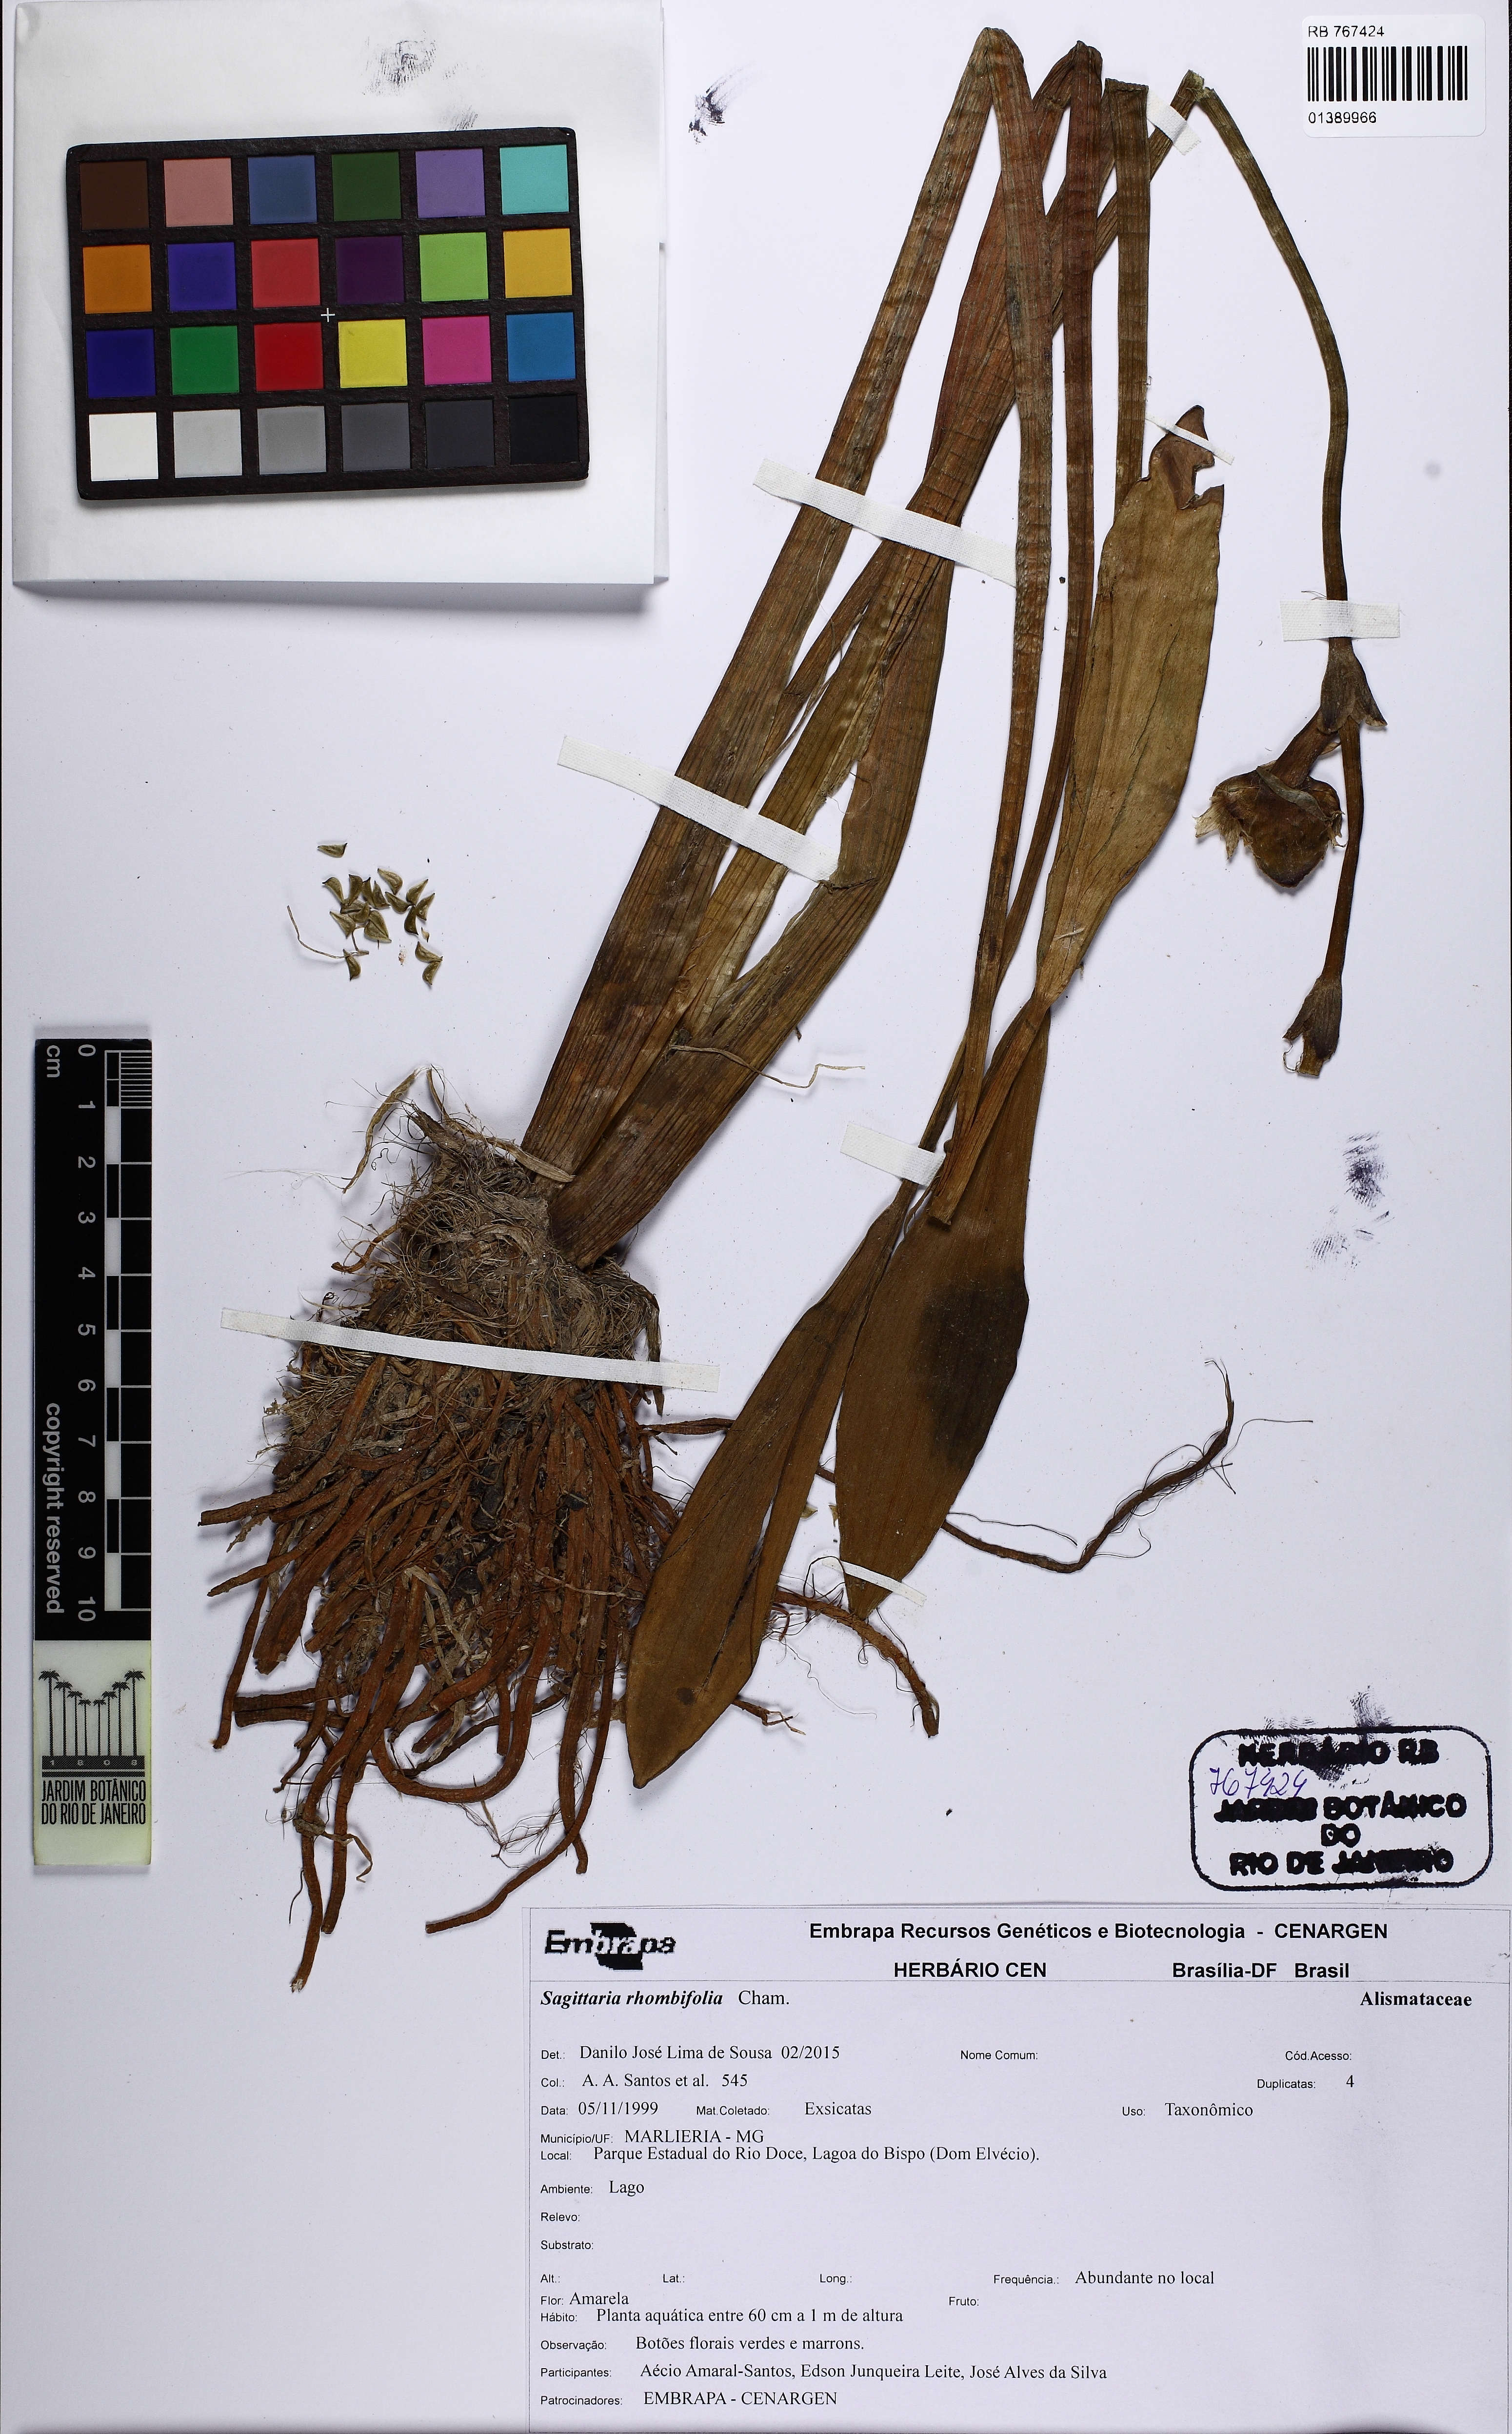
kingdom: Plantae
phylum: Tracheophyta
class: Liliopsida
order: Alismatales
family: Alismataceae
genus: Sagittaria
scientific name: Sagittaria rhombifolia
